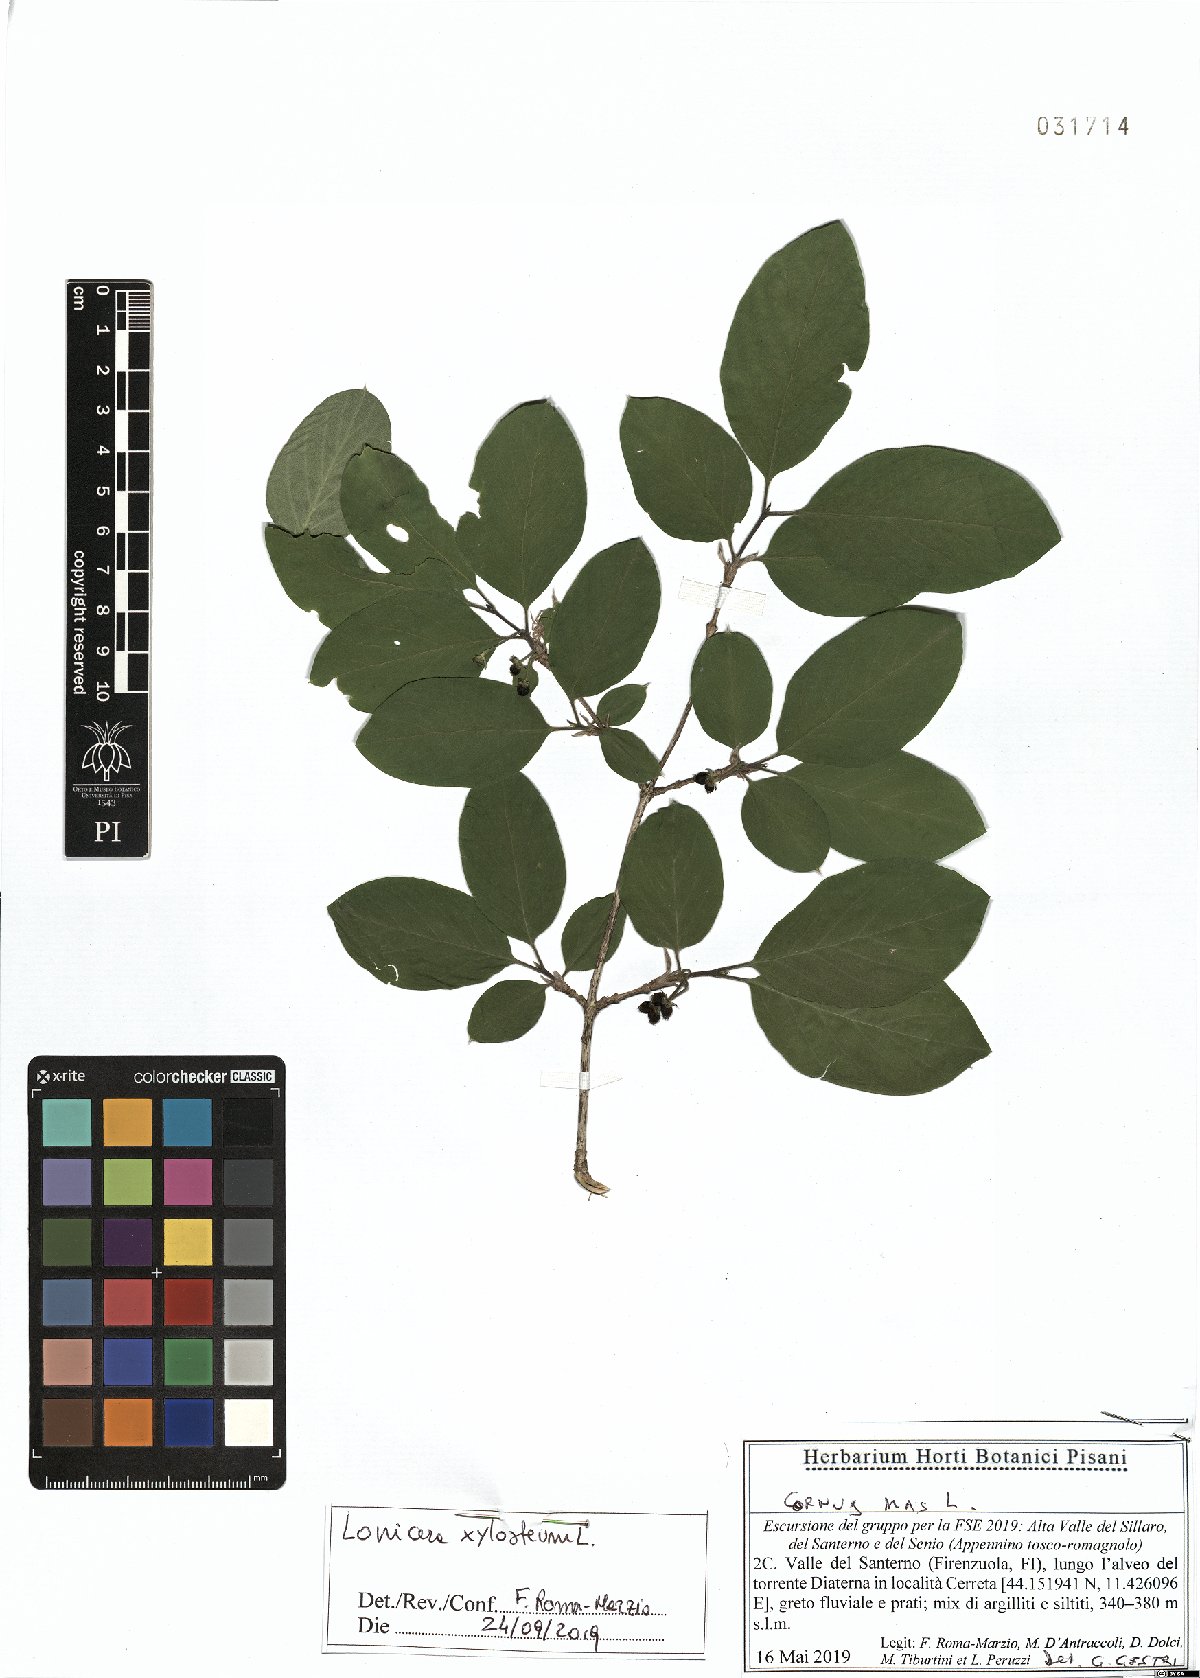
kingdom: Plantae
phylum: Tracheophyta
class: Magnoliopsida
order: Dipsacales
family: Caprifoliaceae
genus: Lonicera
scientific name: Lonicera xylosteum
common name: Fly honeysuckle
